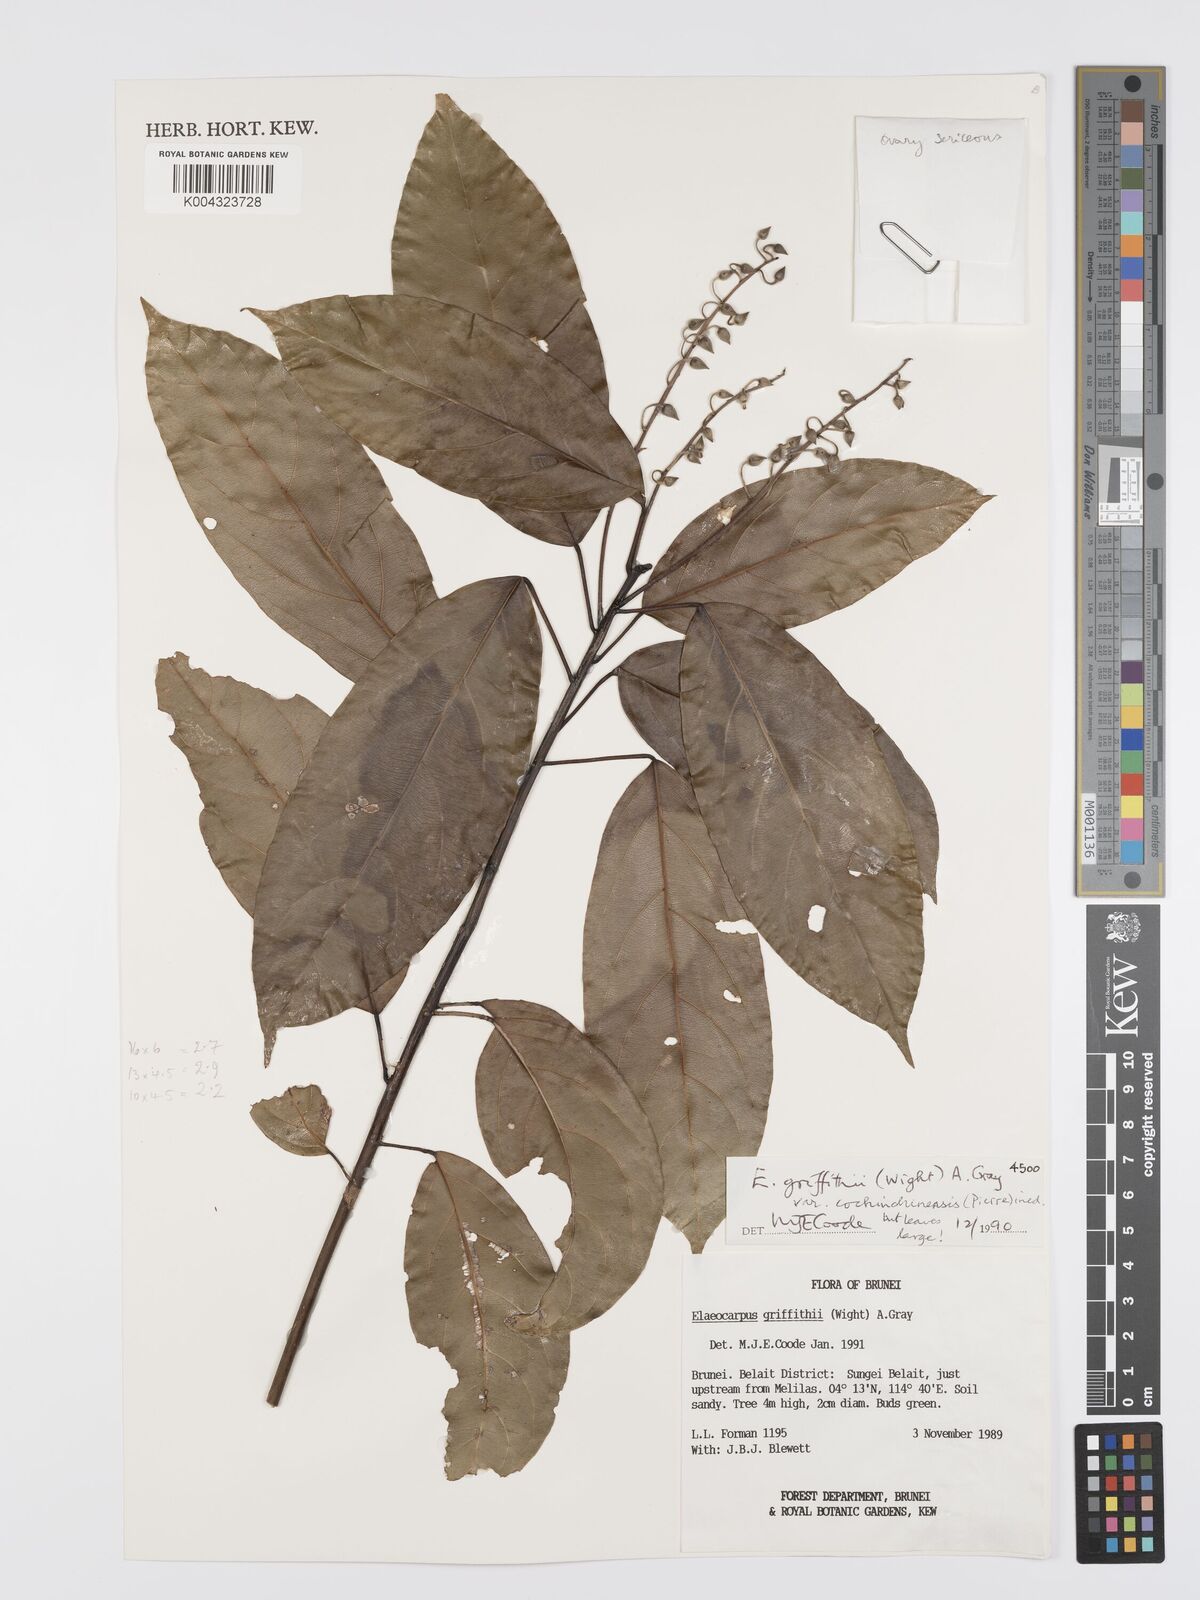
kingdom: Plantae
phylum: Tracheophyta
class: Magnoliopsida
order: Oxalidales
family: Elaeocarpaceae
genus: Elaeocarpus
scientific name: Elaeocarpus griffithii
